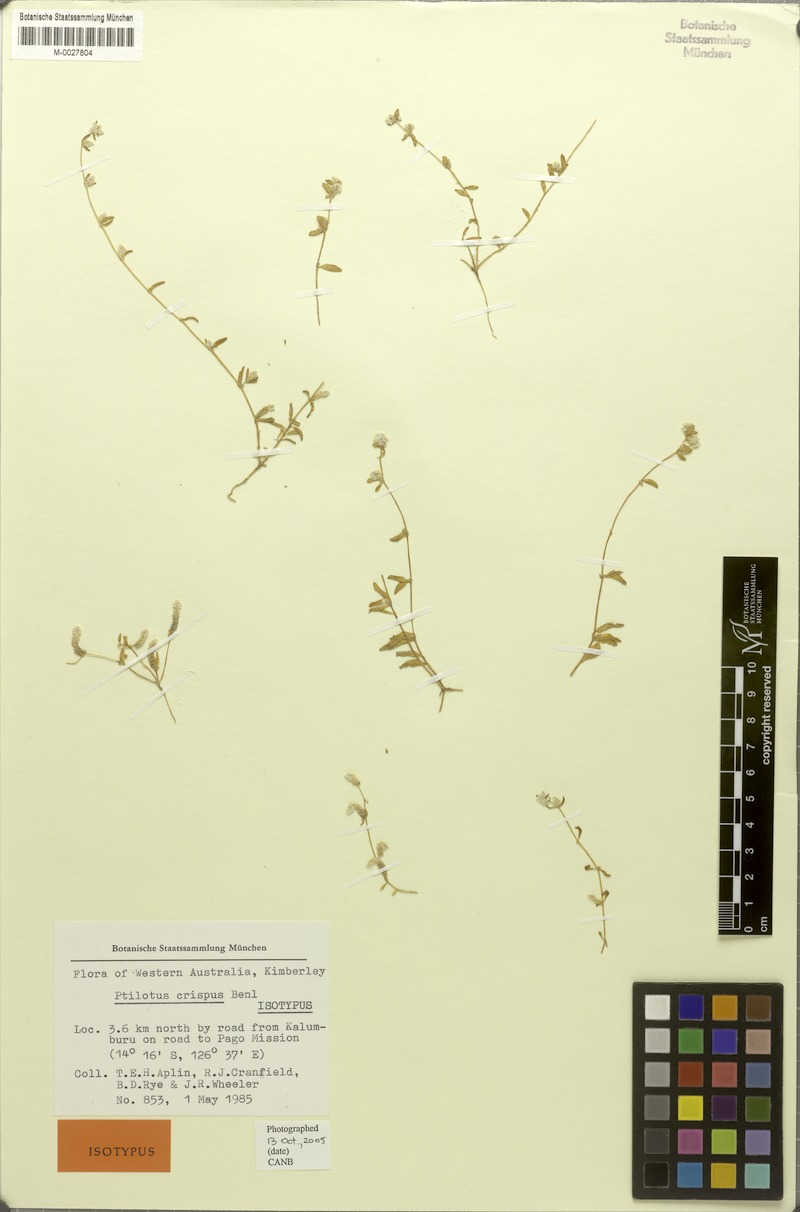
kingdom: Plantae
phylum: Tracheophyta
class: Magnoliopsida
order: Caryophyllales
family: Amaranthaceae
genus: Ptilotus
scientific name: Ptilotus crispus
